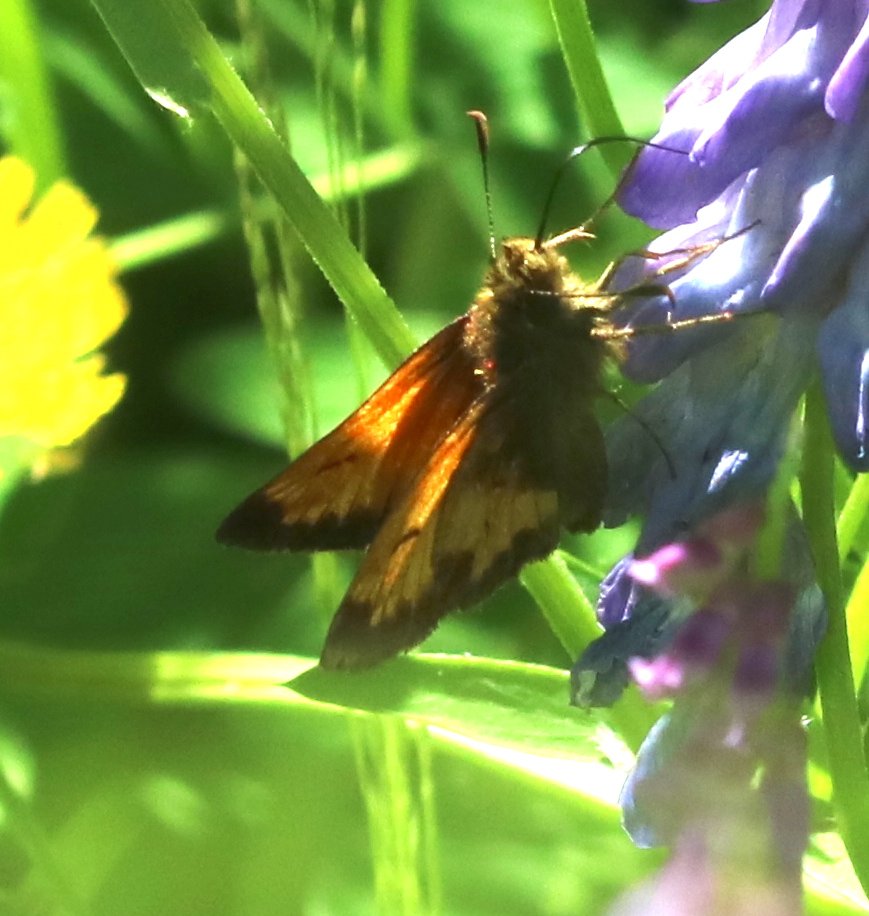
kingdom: Animalia
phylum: Arthropoda
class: Insecta
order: Lepidoptera
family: Hesperiidae
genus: Lon
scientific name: Lon hobomok
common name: Hobomok Skipper
